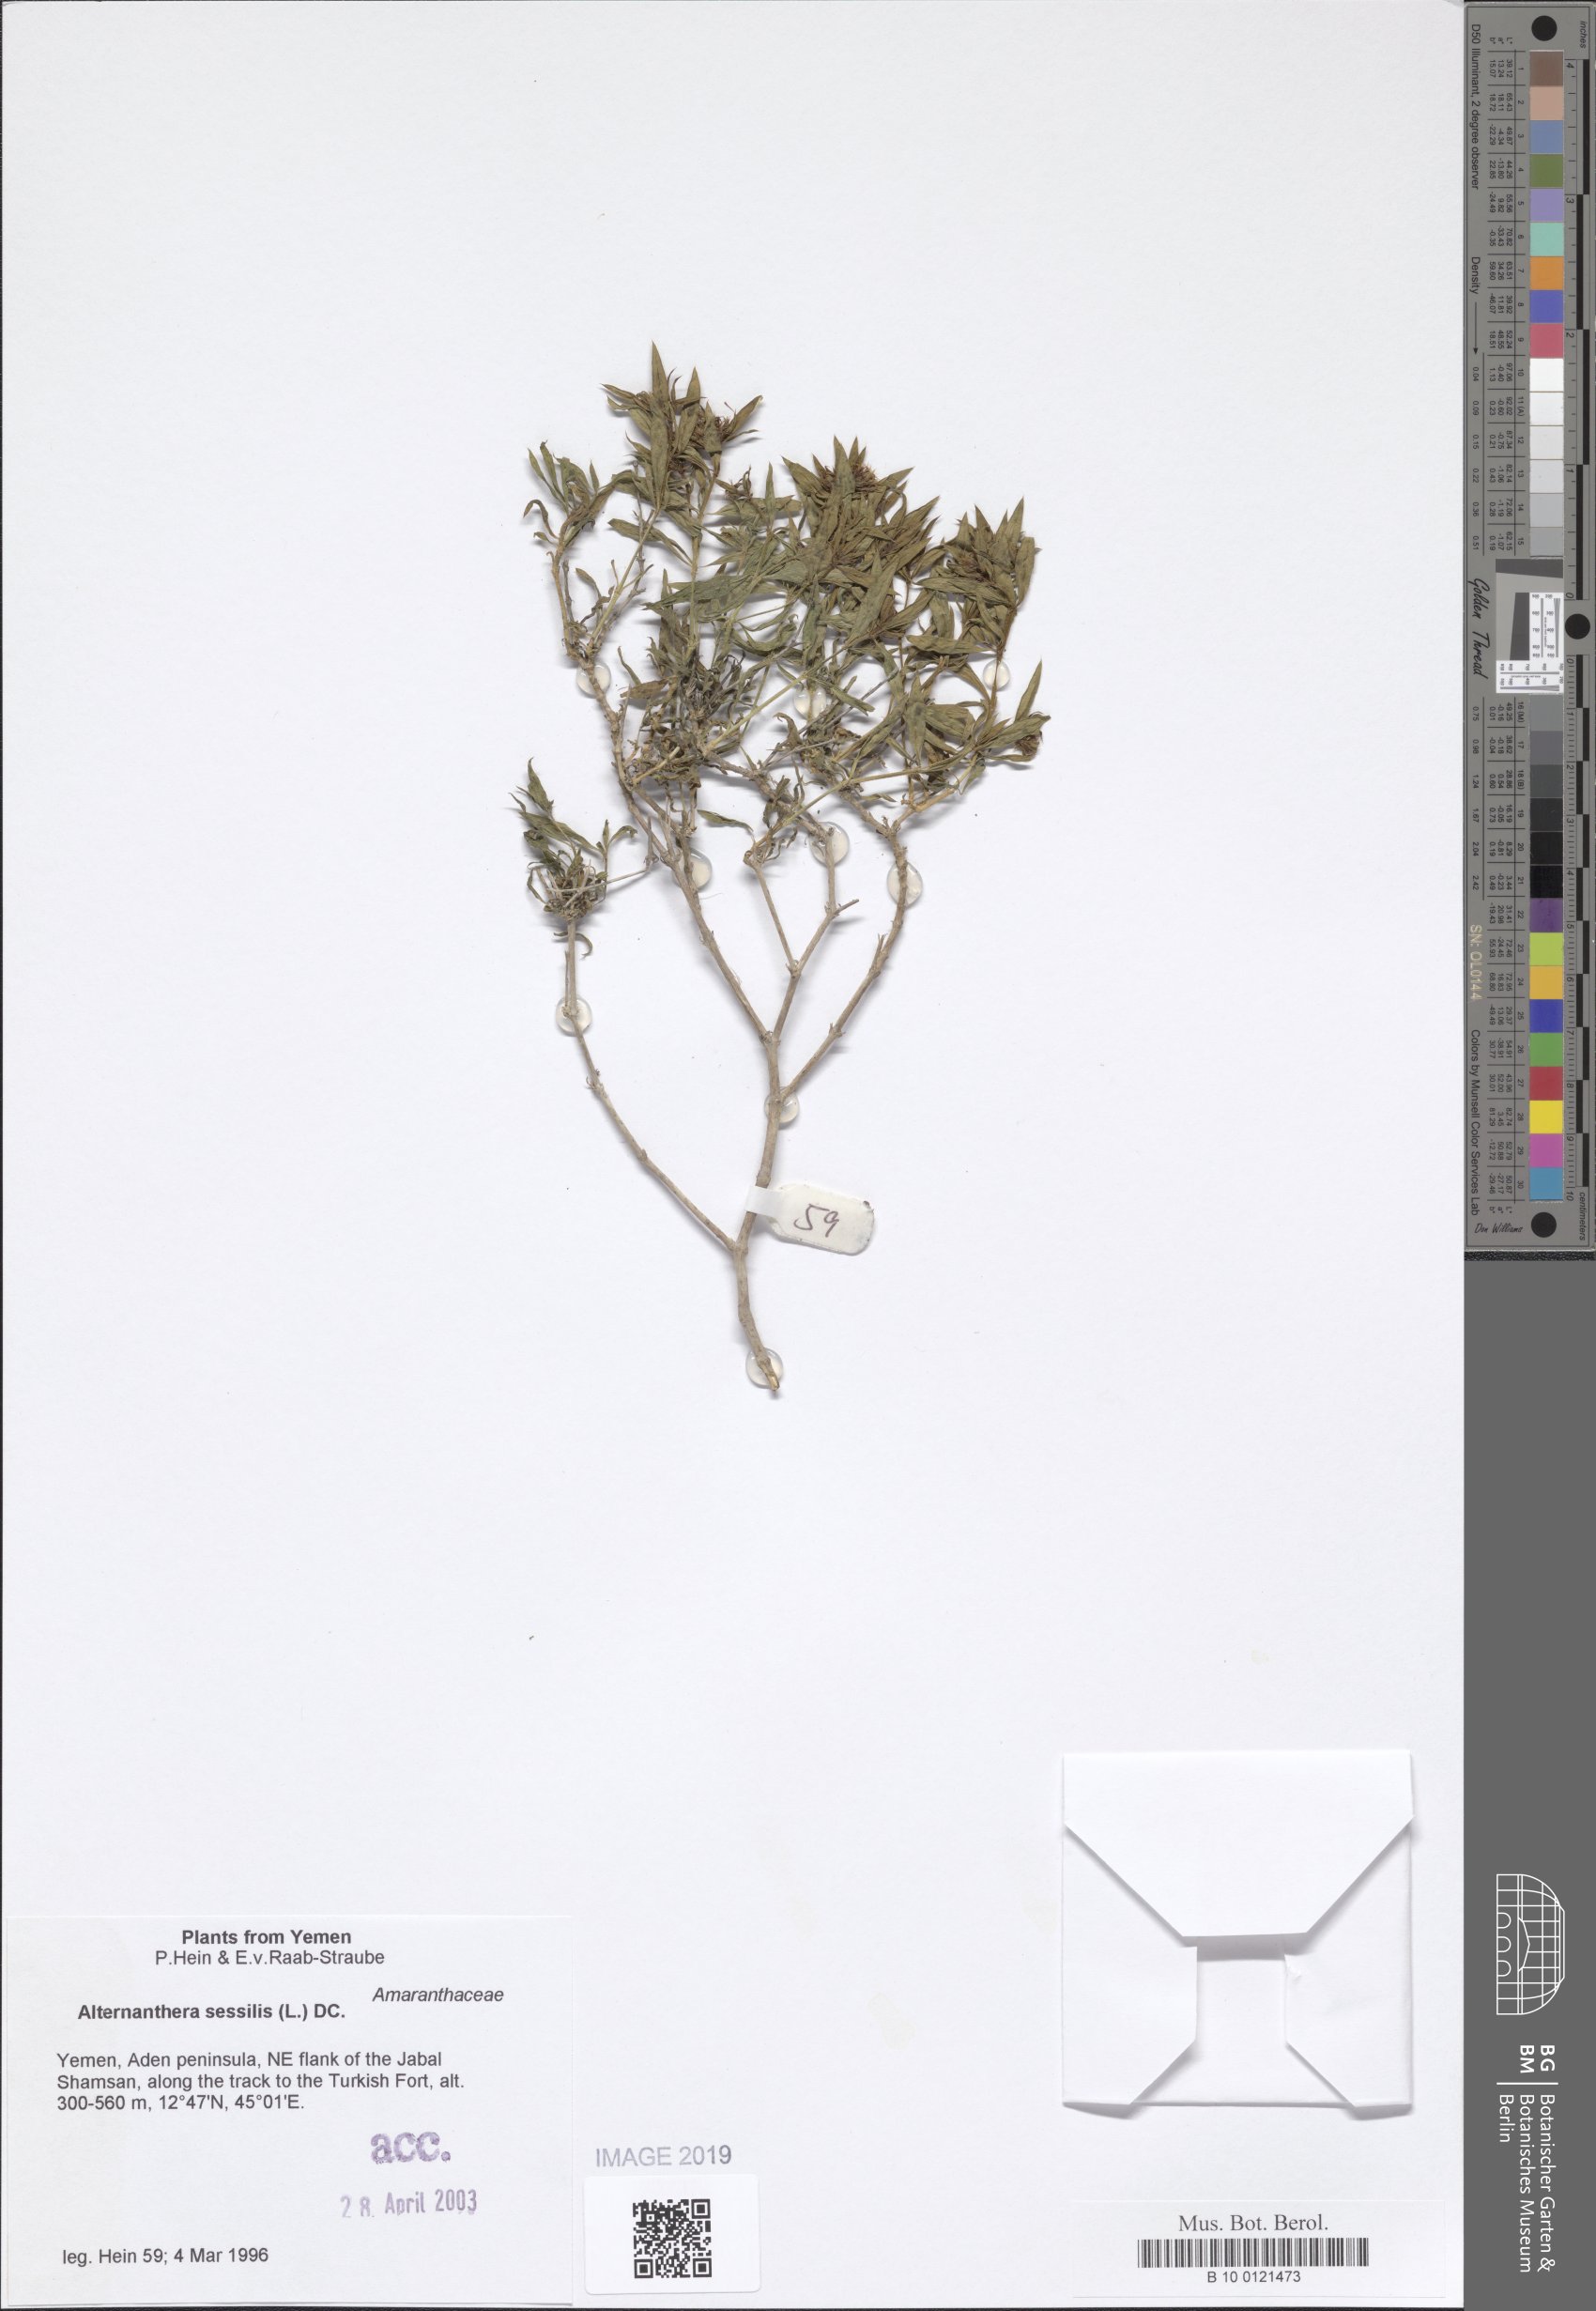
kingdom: Plantae
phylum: Tracheophyta
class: Magnoliopsida
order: Caryophyllales
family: Amaranthaceae
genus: Alternanthera
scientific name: Alternanthera sessilis
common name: Sessile joyweed
